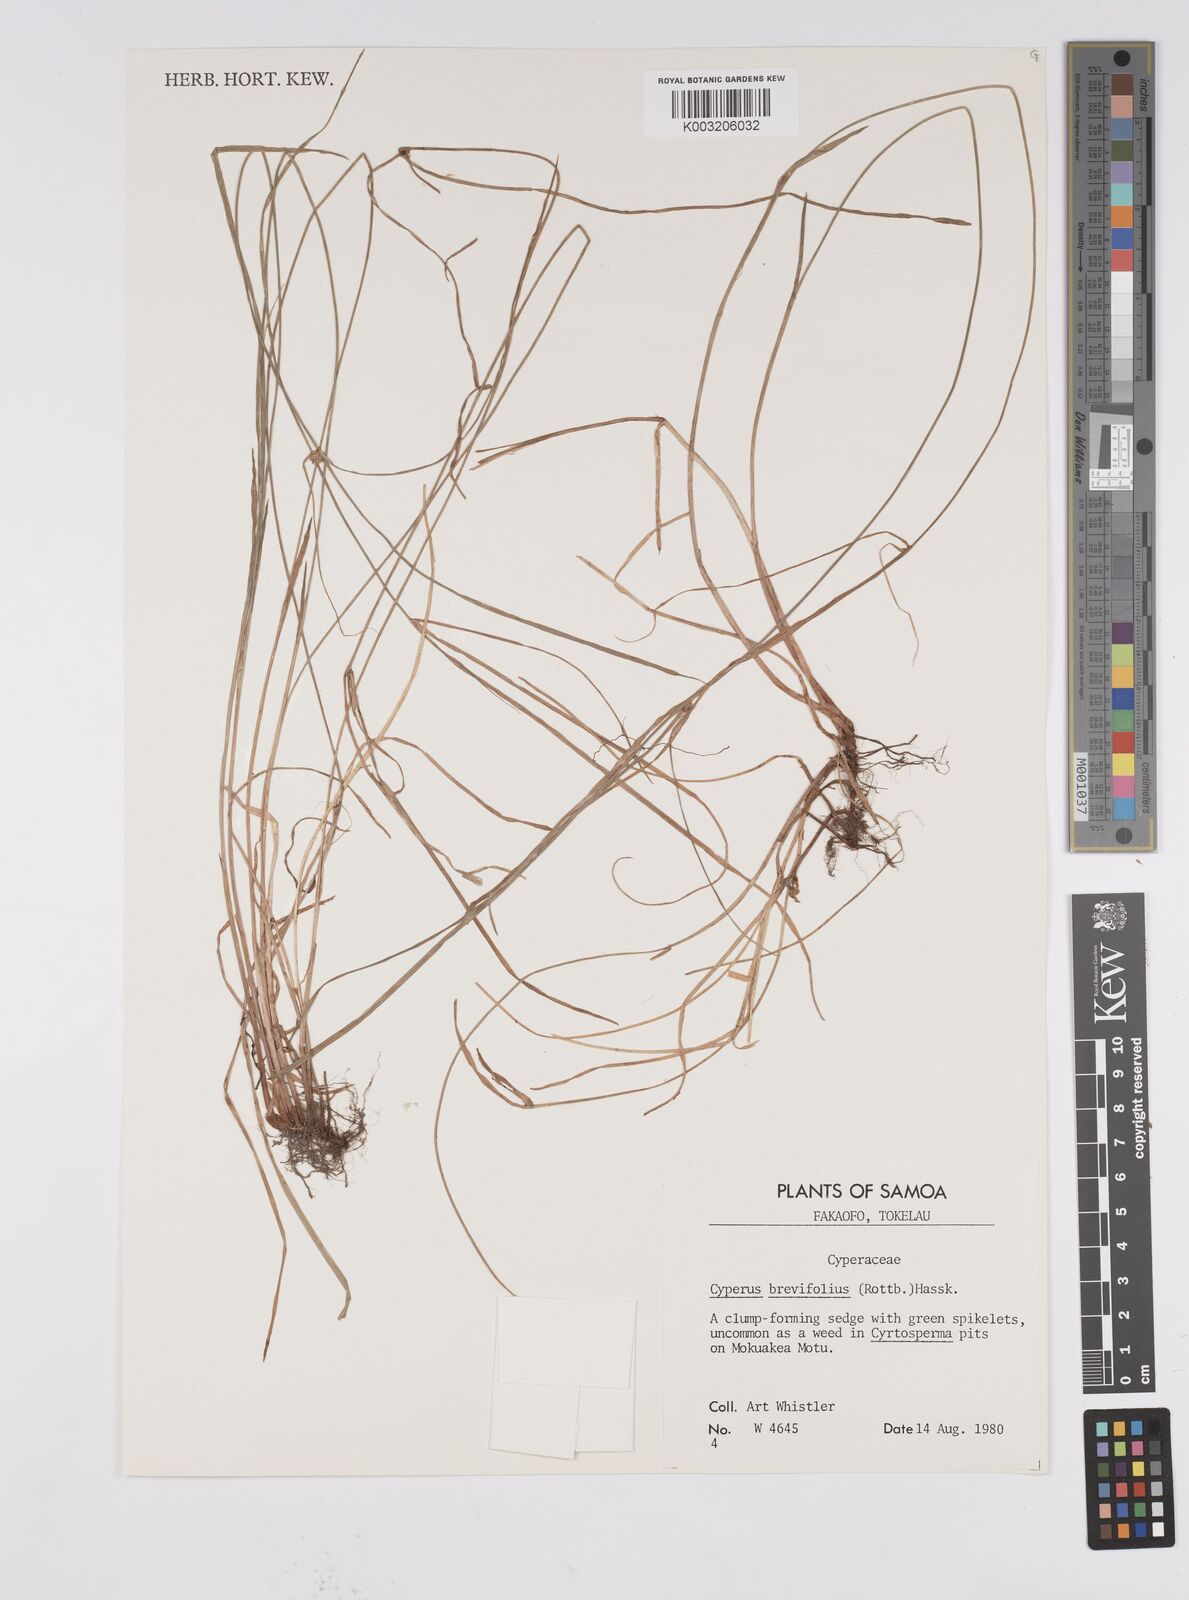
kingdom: Plantae
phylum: Tracheophyta
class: Liliopsida
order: Poales
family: Cyperaceae
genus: Cyperus
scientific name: Cyperus brevifolius
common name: Globe kyllinga
